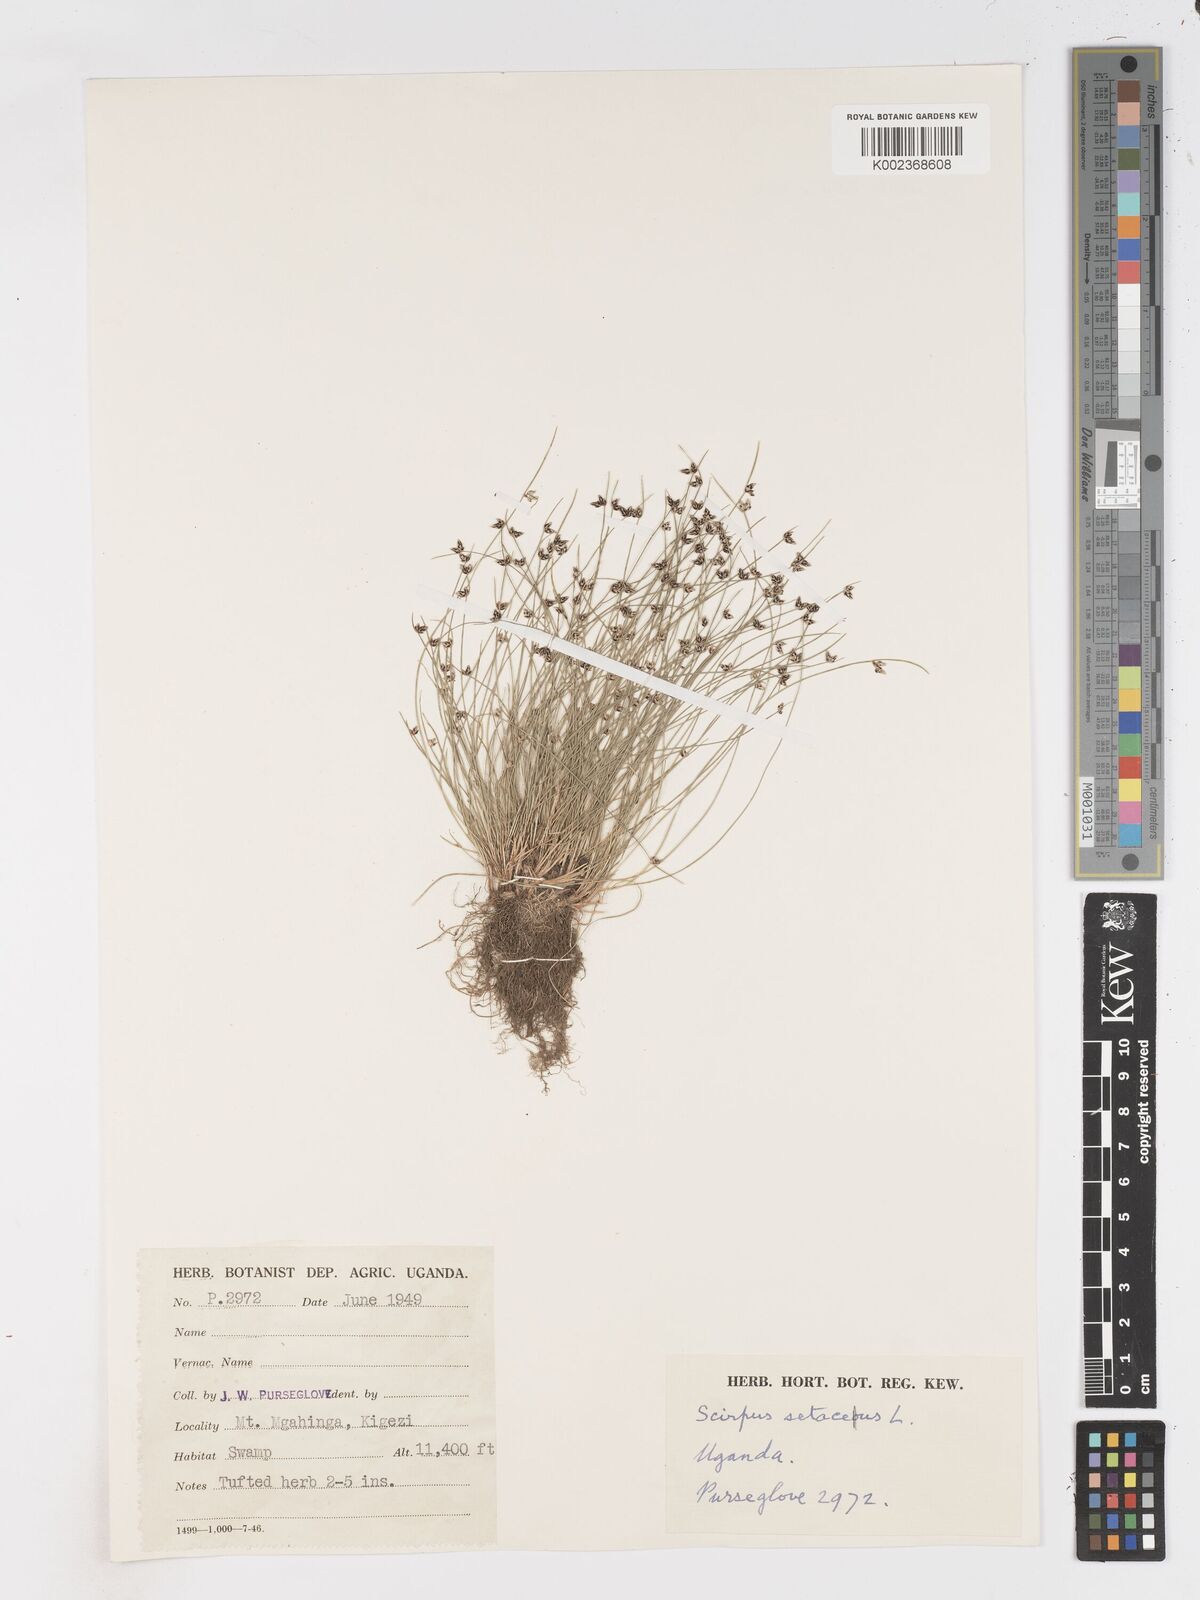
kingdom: Plantae
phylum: Tracheophyta
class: Liliopsida
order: Poales
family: Cyperaceae
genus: Isolepis
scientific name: Isolepis setacea
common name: Bristle club-rush
